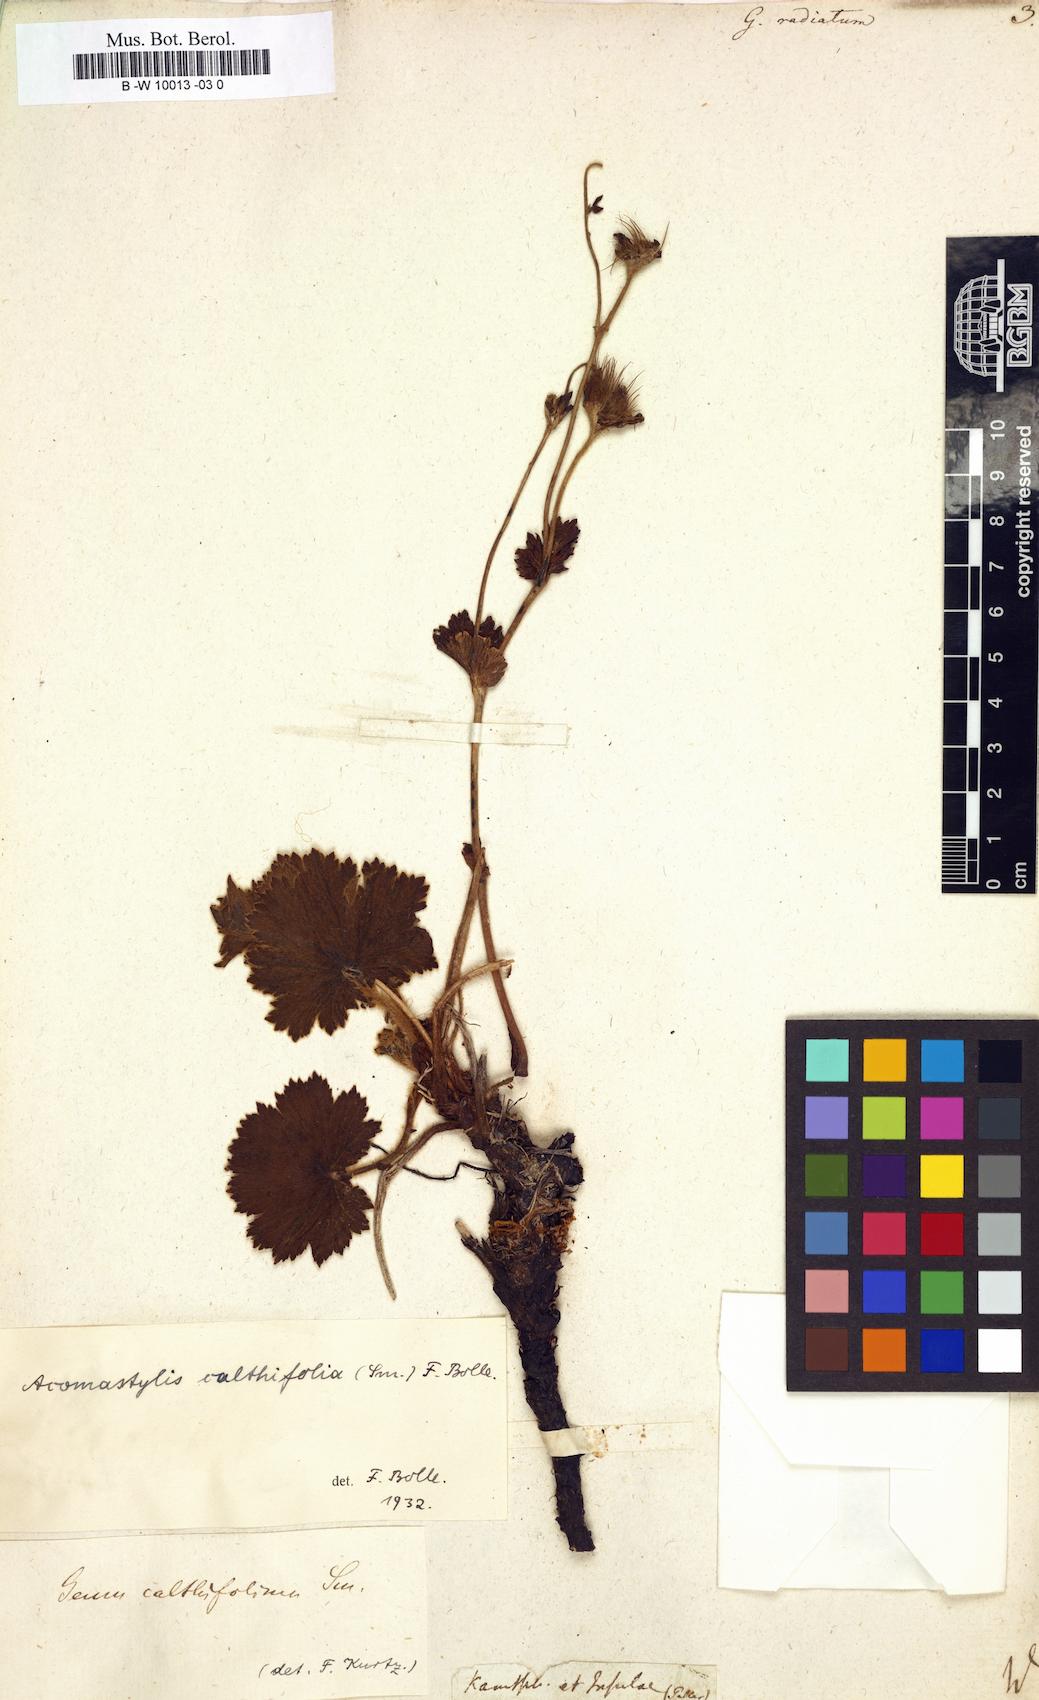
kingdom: Plantae
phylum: Tracheophyta
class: Magnoliopsida
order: Rosales
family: Rosaceae
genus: Geum
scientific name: Geum radiatum
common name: Spreaded avens
